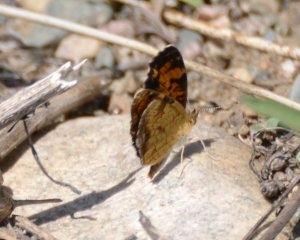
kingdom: Animalia
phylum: Arthropoda
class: Insecta
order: Lepidoptera
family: Nymphalidae
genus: Phyciodes
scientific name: Phyciodes tharos
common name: Northern Crescent
